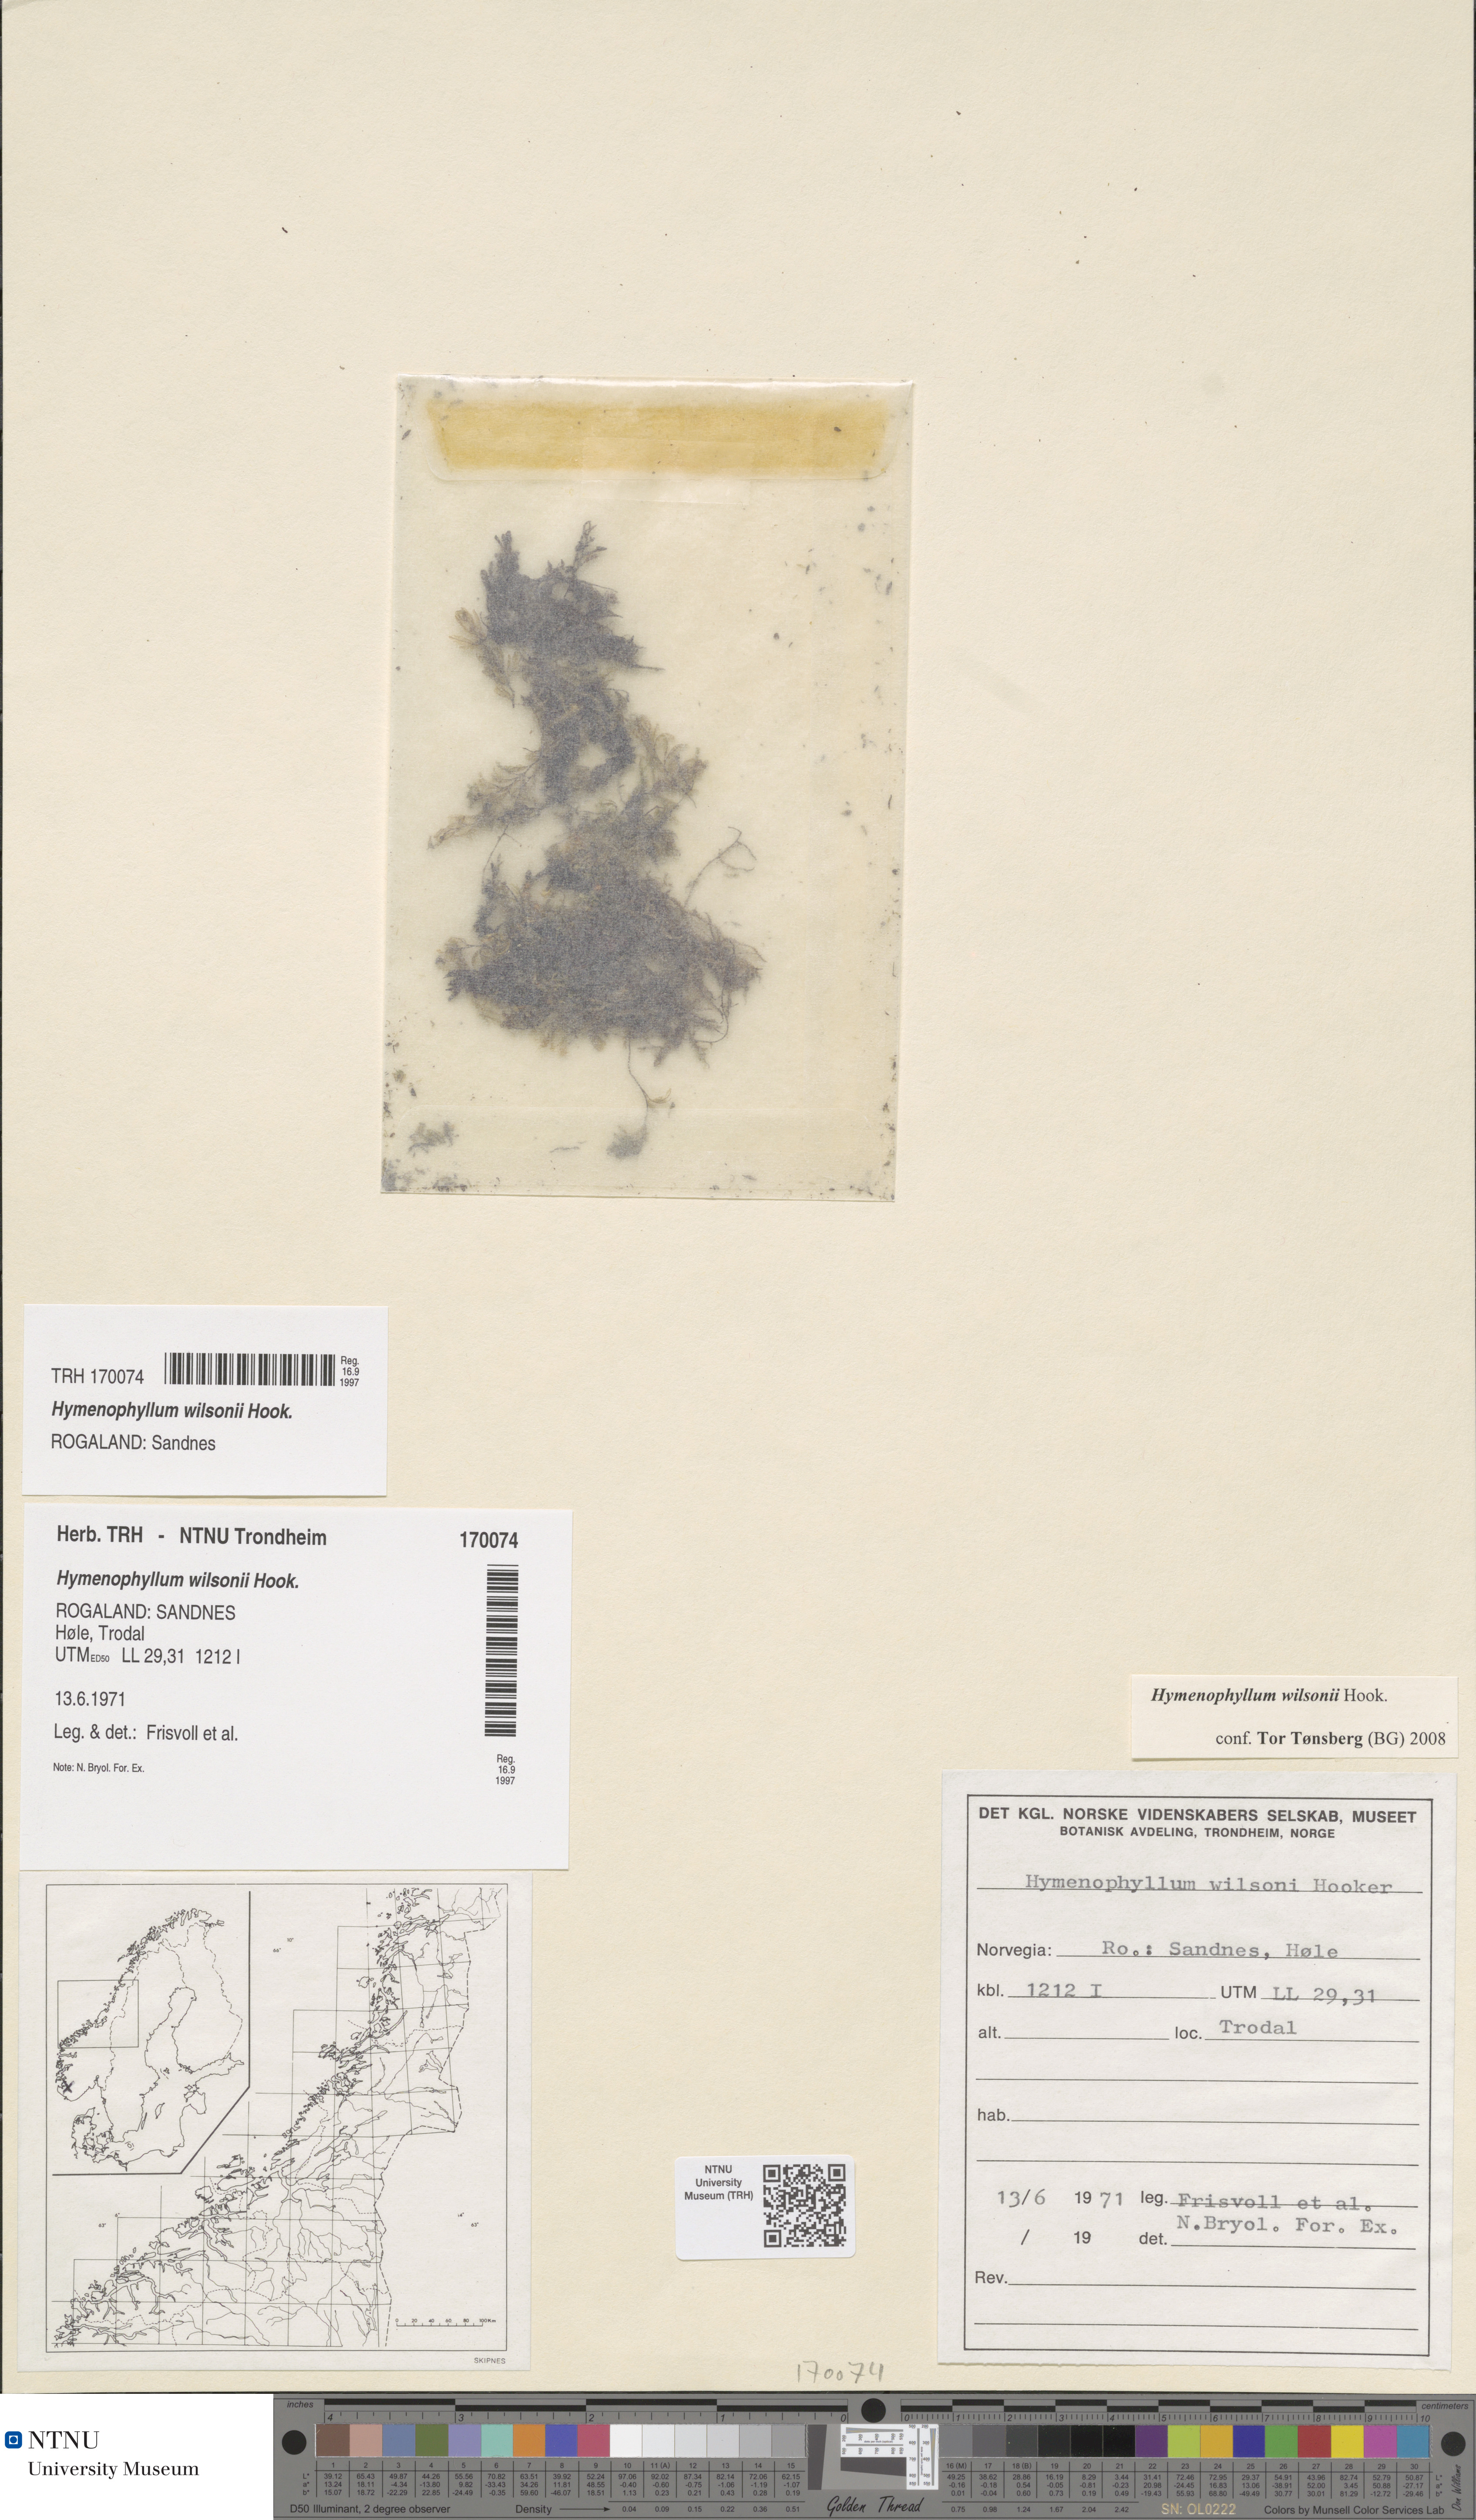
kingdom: Plantae
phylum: Tracheophyta
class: Polypodiopsida
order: Hymenophyllales
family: Hymenophyllaceae
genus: Hymenophyllum
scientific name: Hymenophyllum peltatum
